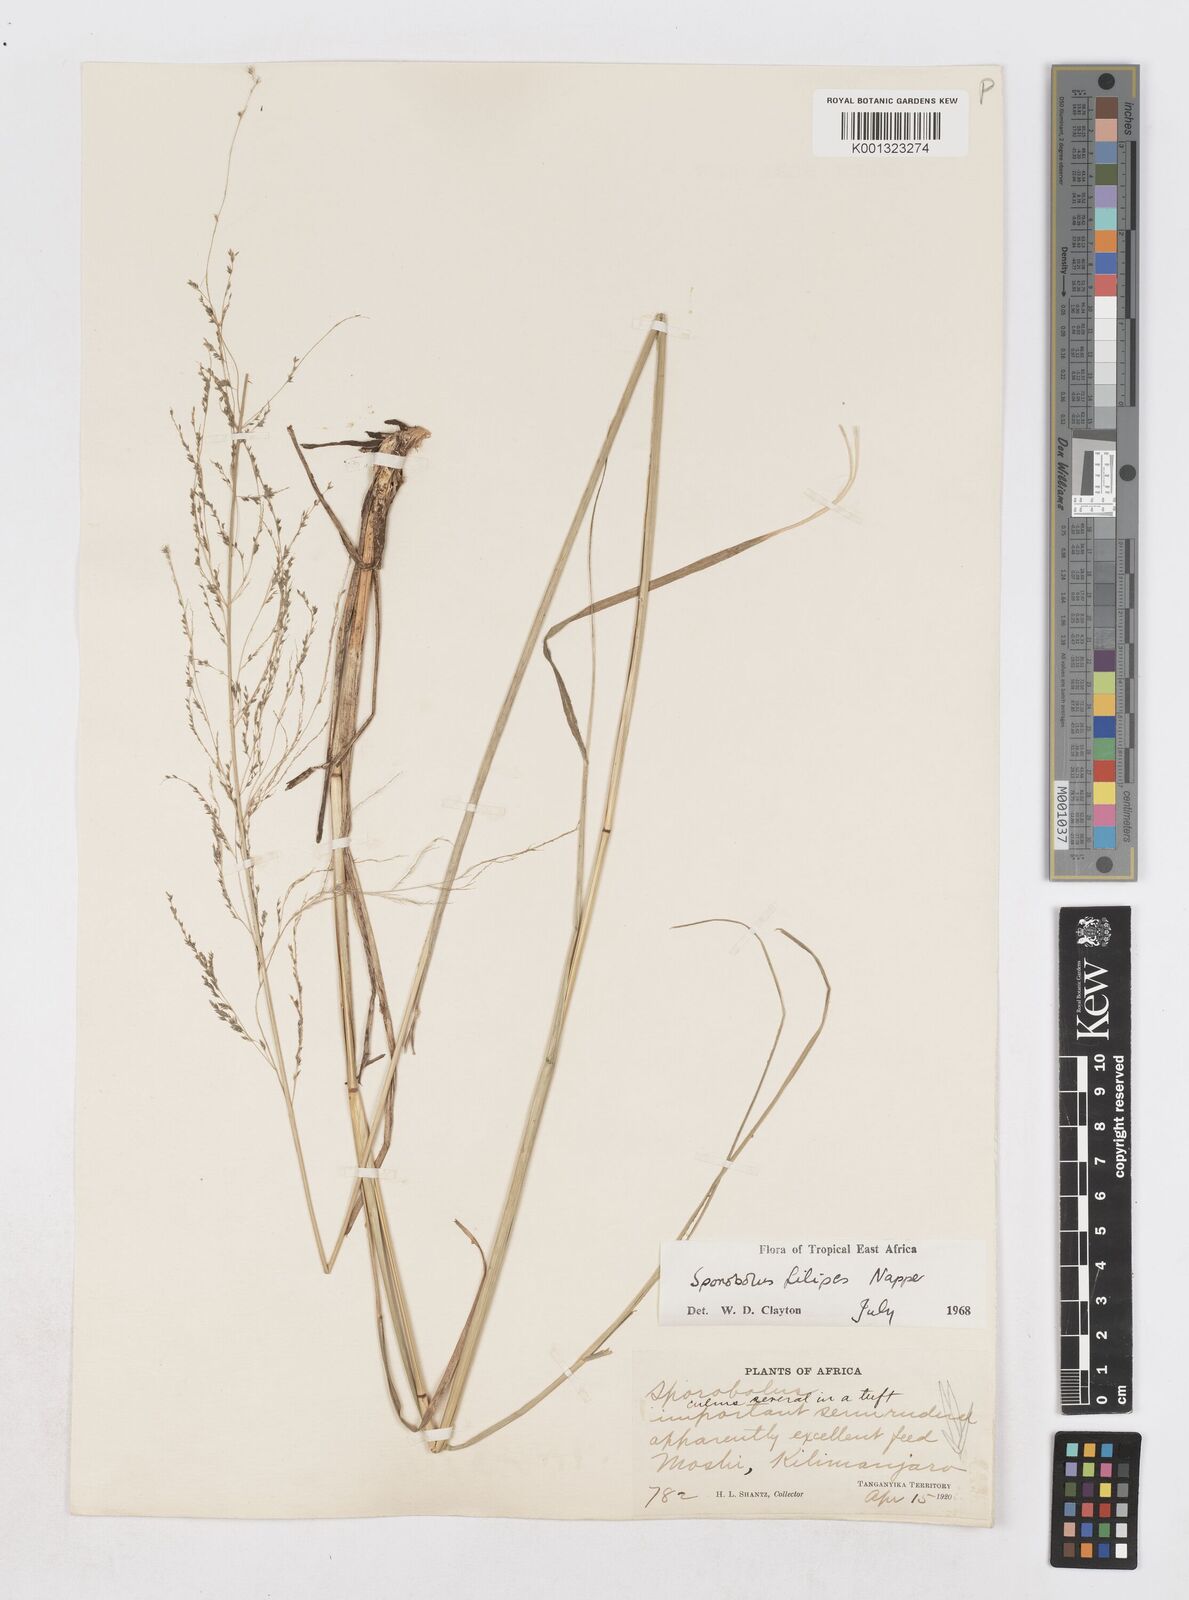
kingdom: Plantae
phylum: Tracheophyta
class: Liliopsida
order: Poales
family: Poaceae
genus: Sporobolus
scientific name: Sporobolus agrostoides
